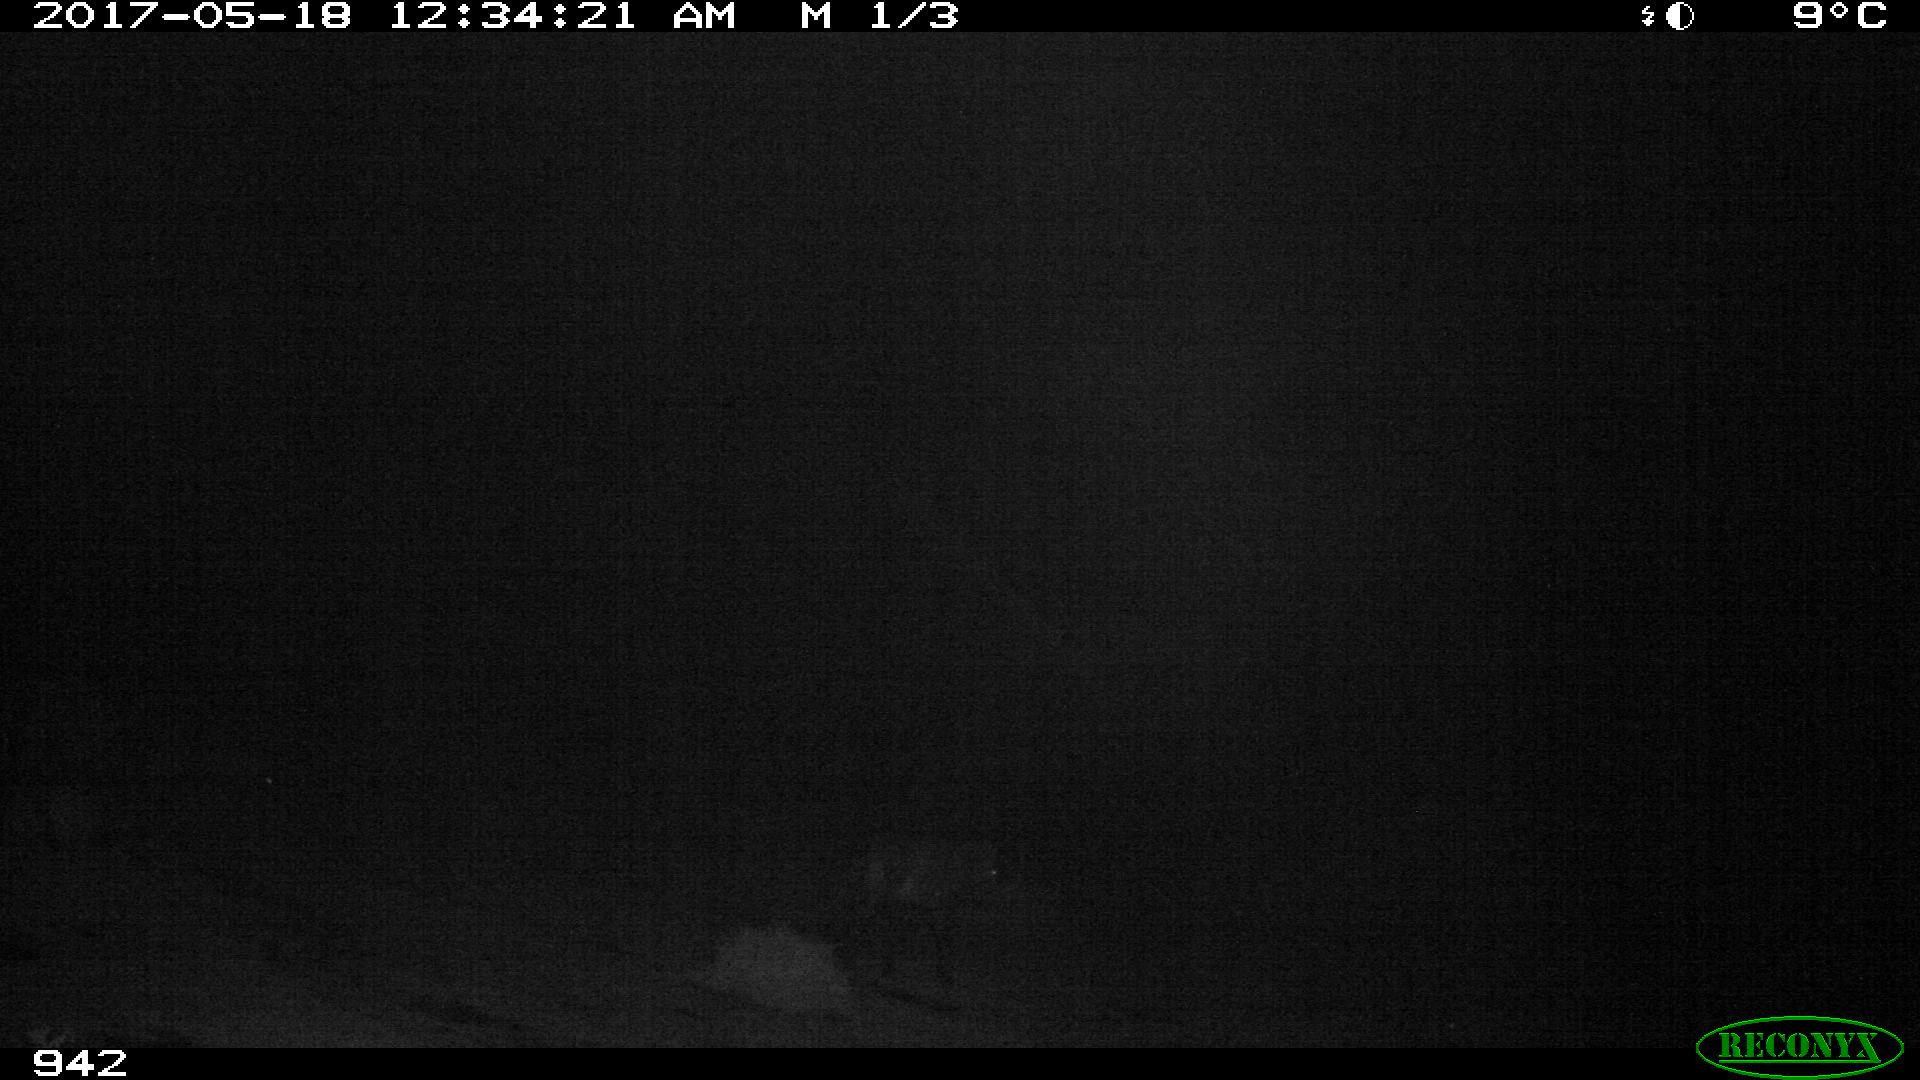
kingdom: Animalia
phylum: Chordata
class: Mammalia
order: Perissodactyla
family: Equidae
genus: Equus
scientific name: Equus caballus
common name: Horse
